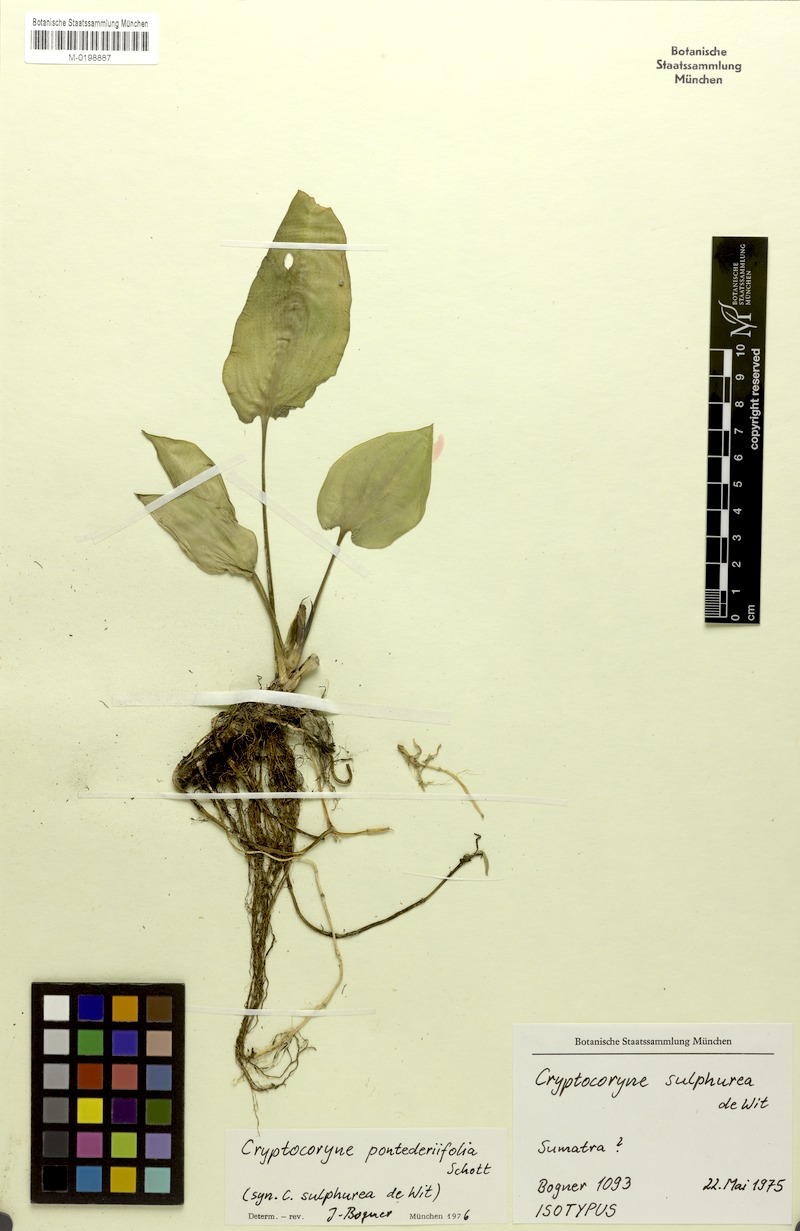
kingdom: Plantae
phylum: Tracheophyta
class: Liliopsida
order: Alismatales
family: Araceae
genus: Cryptocoryne
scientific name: Cryptocoryne pontederiifolia
